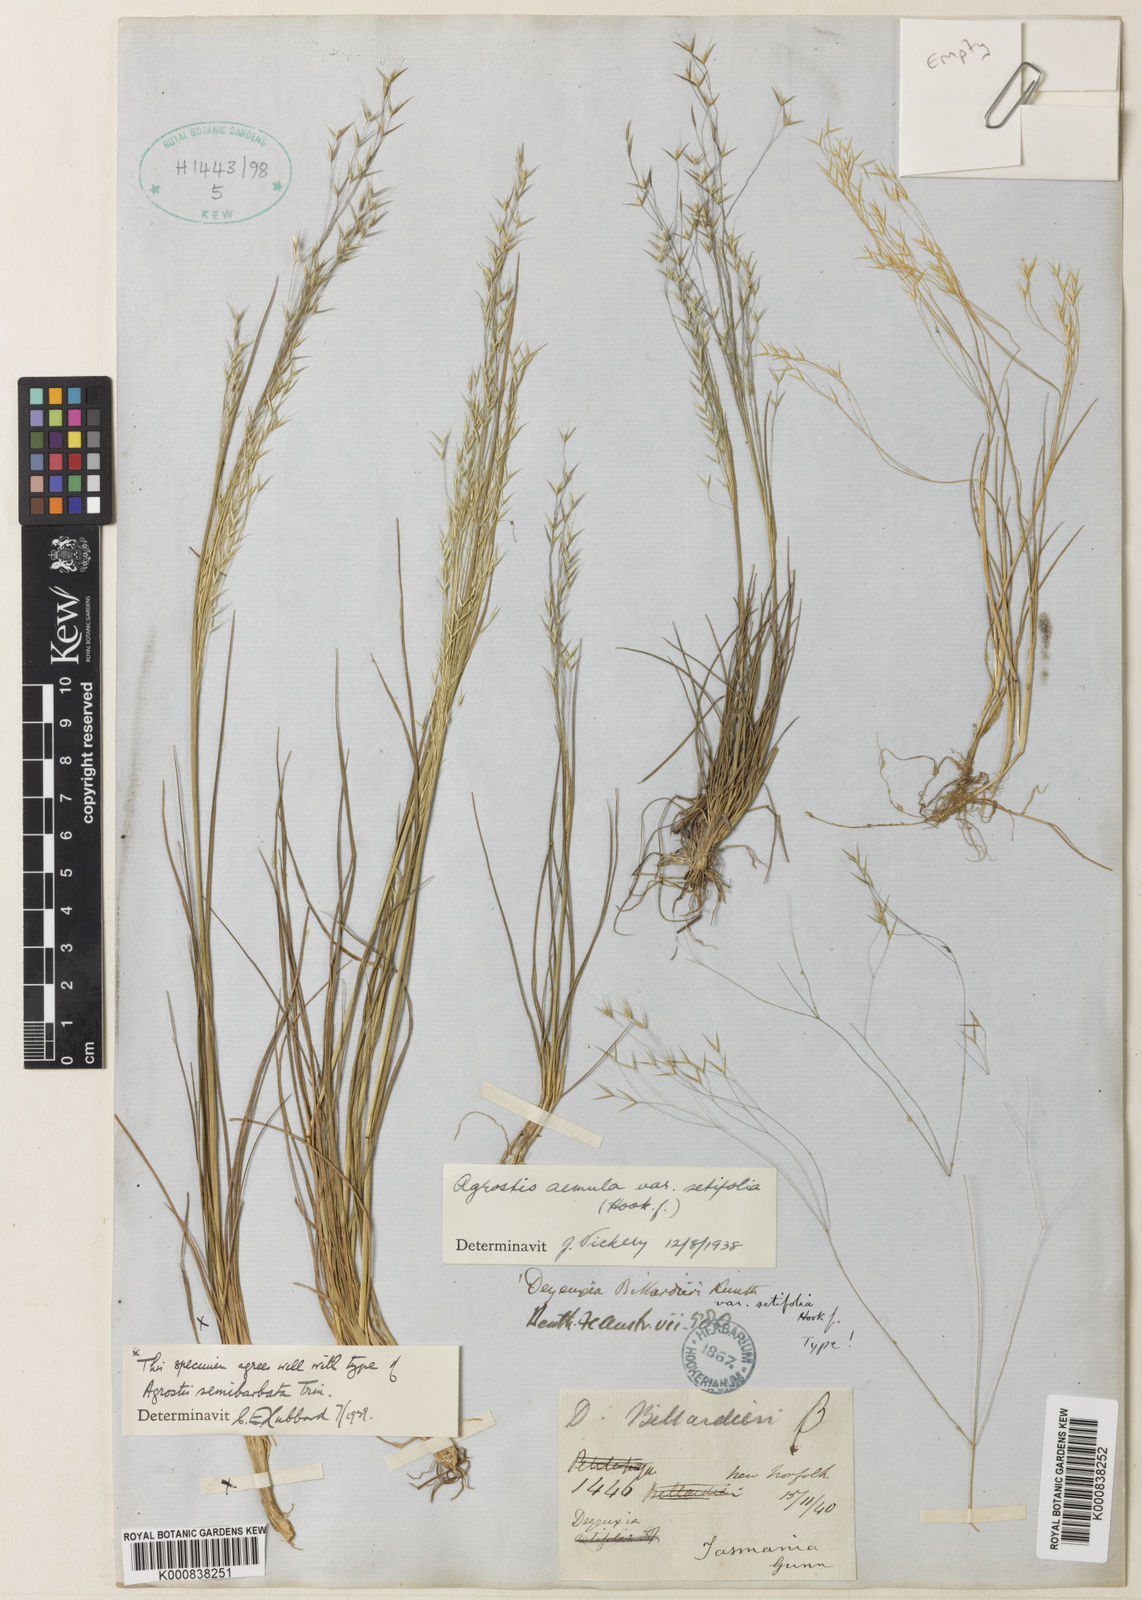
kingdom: Plantae
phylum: Tracheophyta
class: Liliopsida
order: Poales
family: Poaceae
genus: Lachnagrostis
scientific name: Lachnagrostis
